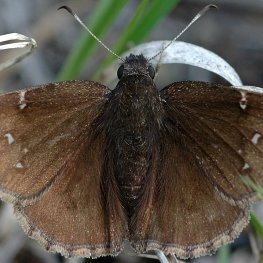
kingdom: Animalia
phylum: Arthropoda
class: Insecta
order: Lepidoptera
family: Hesperiidae
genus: Autochton
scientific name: Autochton
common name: Northern Cloudywing
